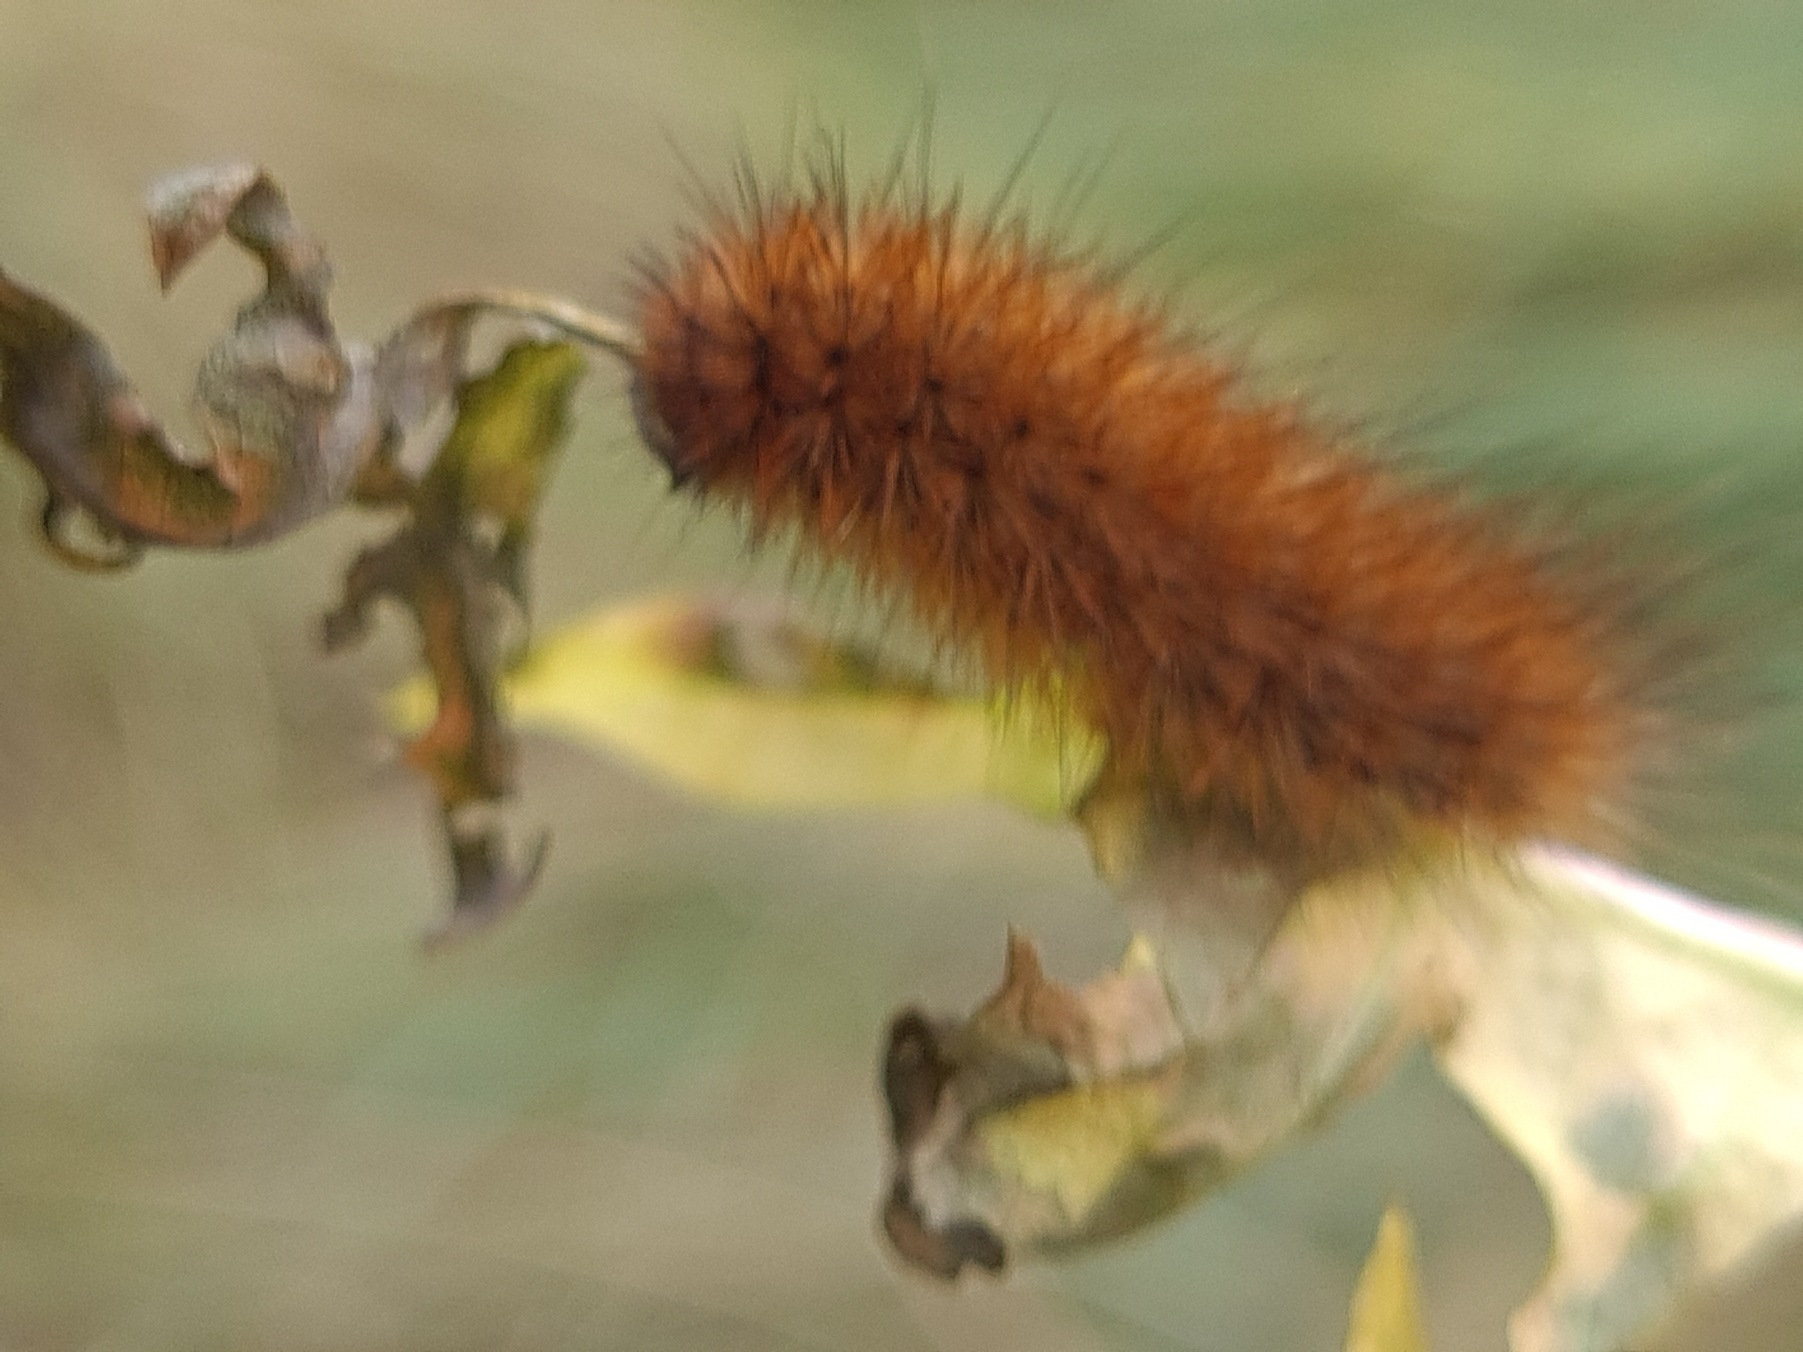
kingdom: Animalia
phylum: Arthropoda
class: Insecta
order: Lepidoptera
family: Erebidae
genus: Phragmatobia
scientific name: Phragmatobia fuliginosa
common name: Kanelbjørn
